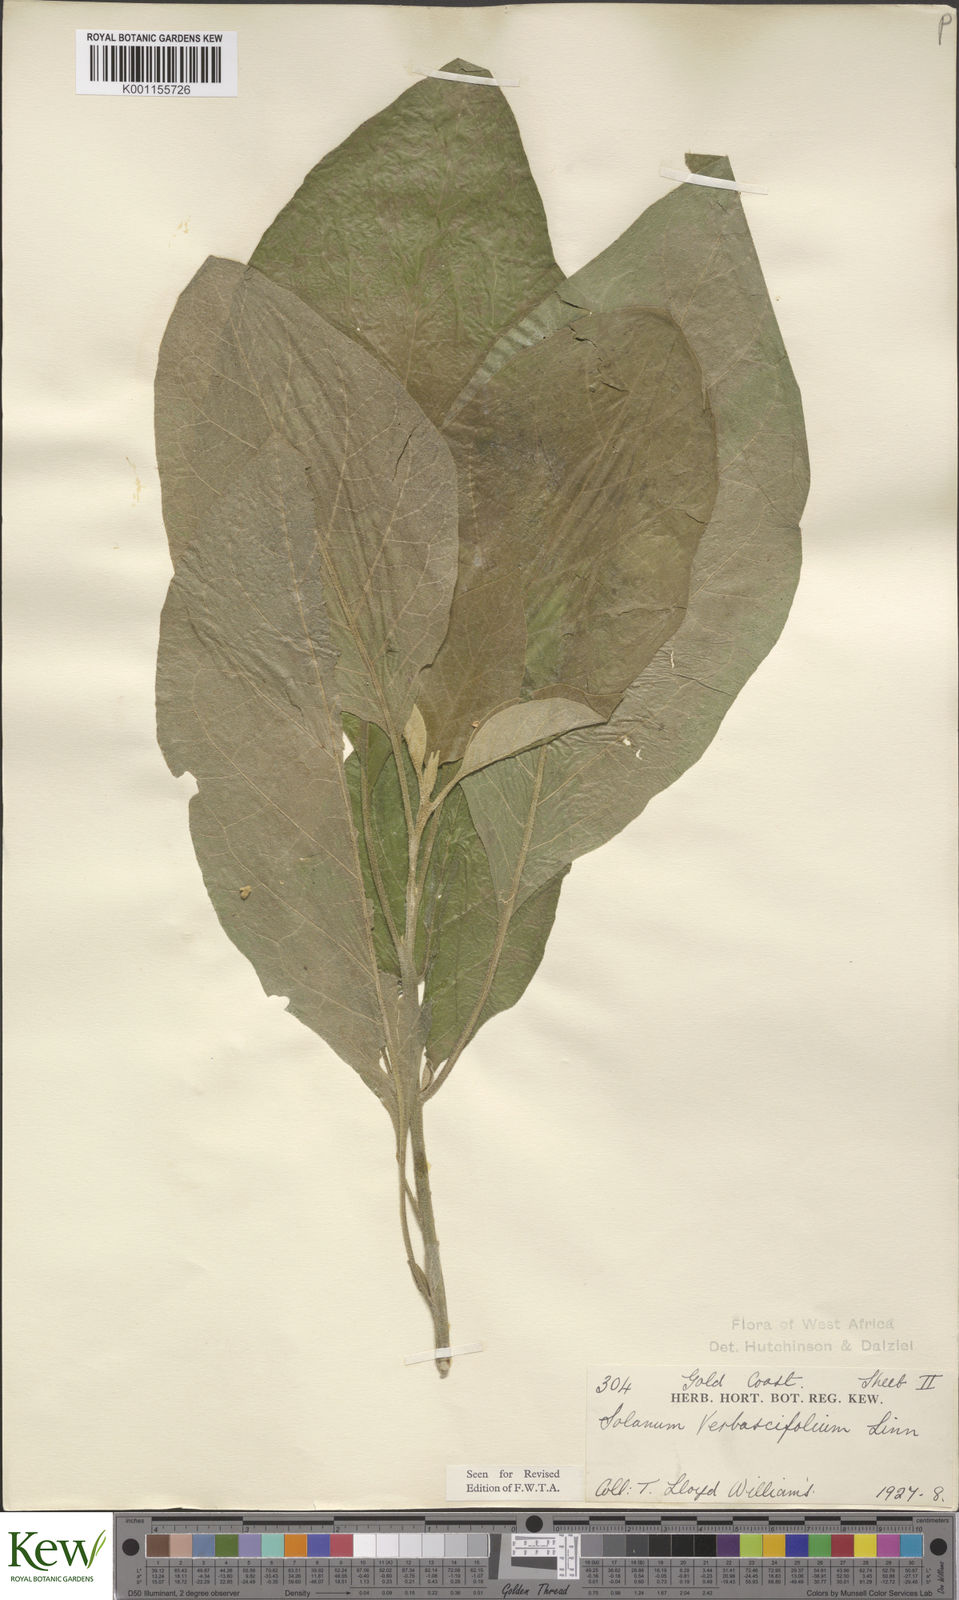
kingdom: Plantae
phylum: Tracheophyta
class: Magnoliopsida
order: Solanales
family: Solanaceae
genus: Solanum
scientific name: Solanum erianthum
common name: Tobacco-tree
